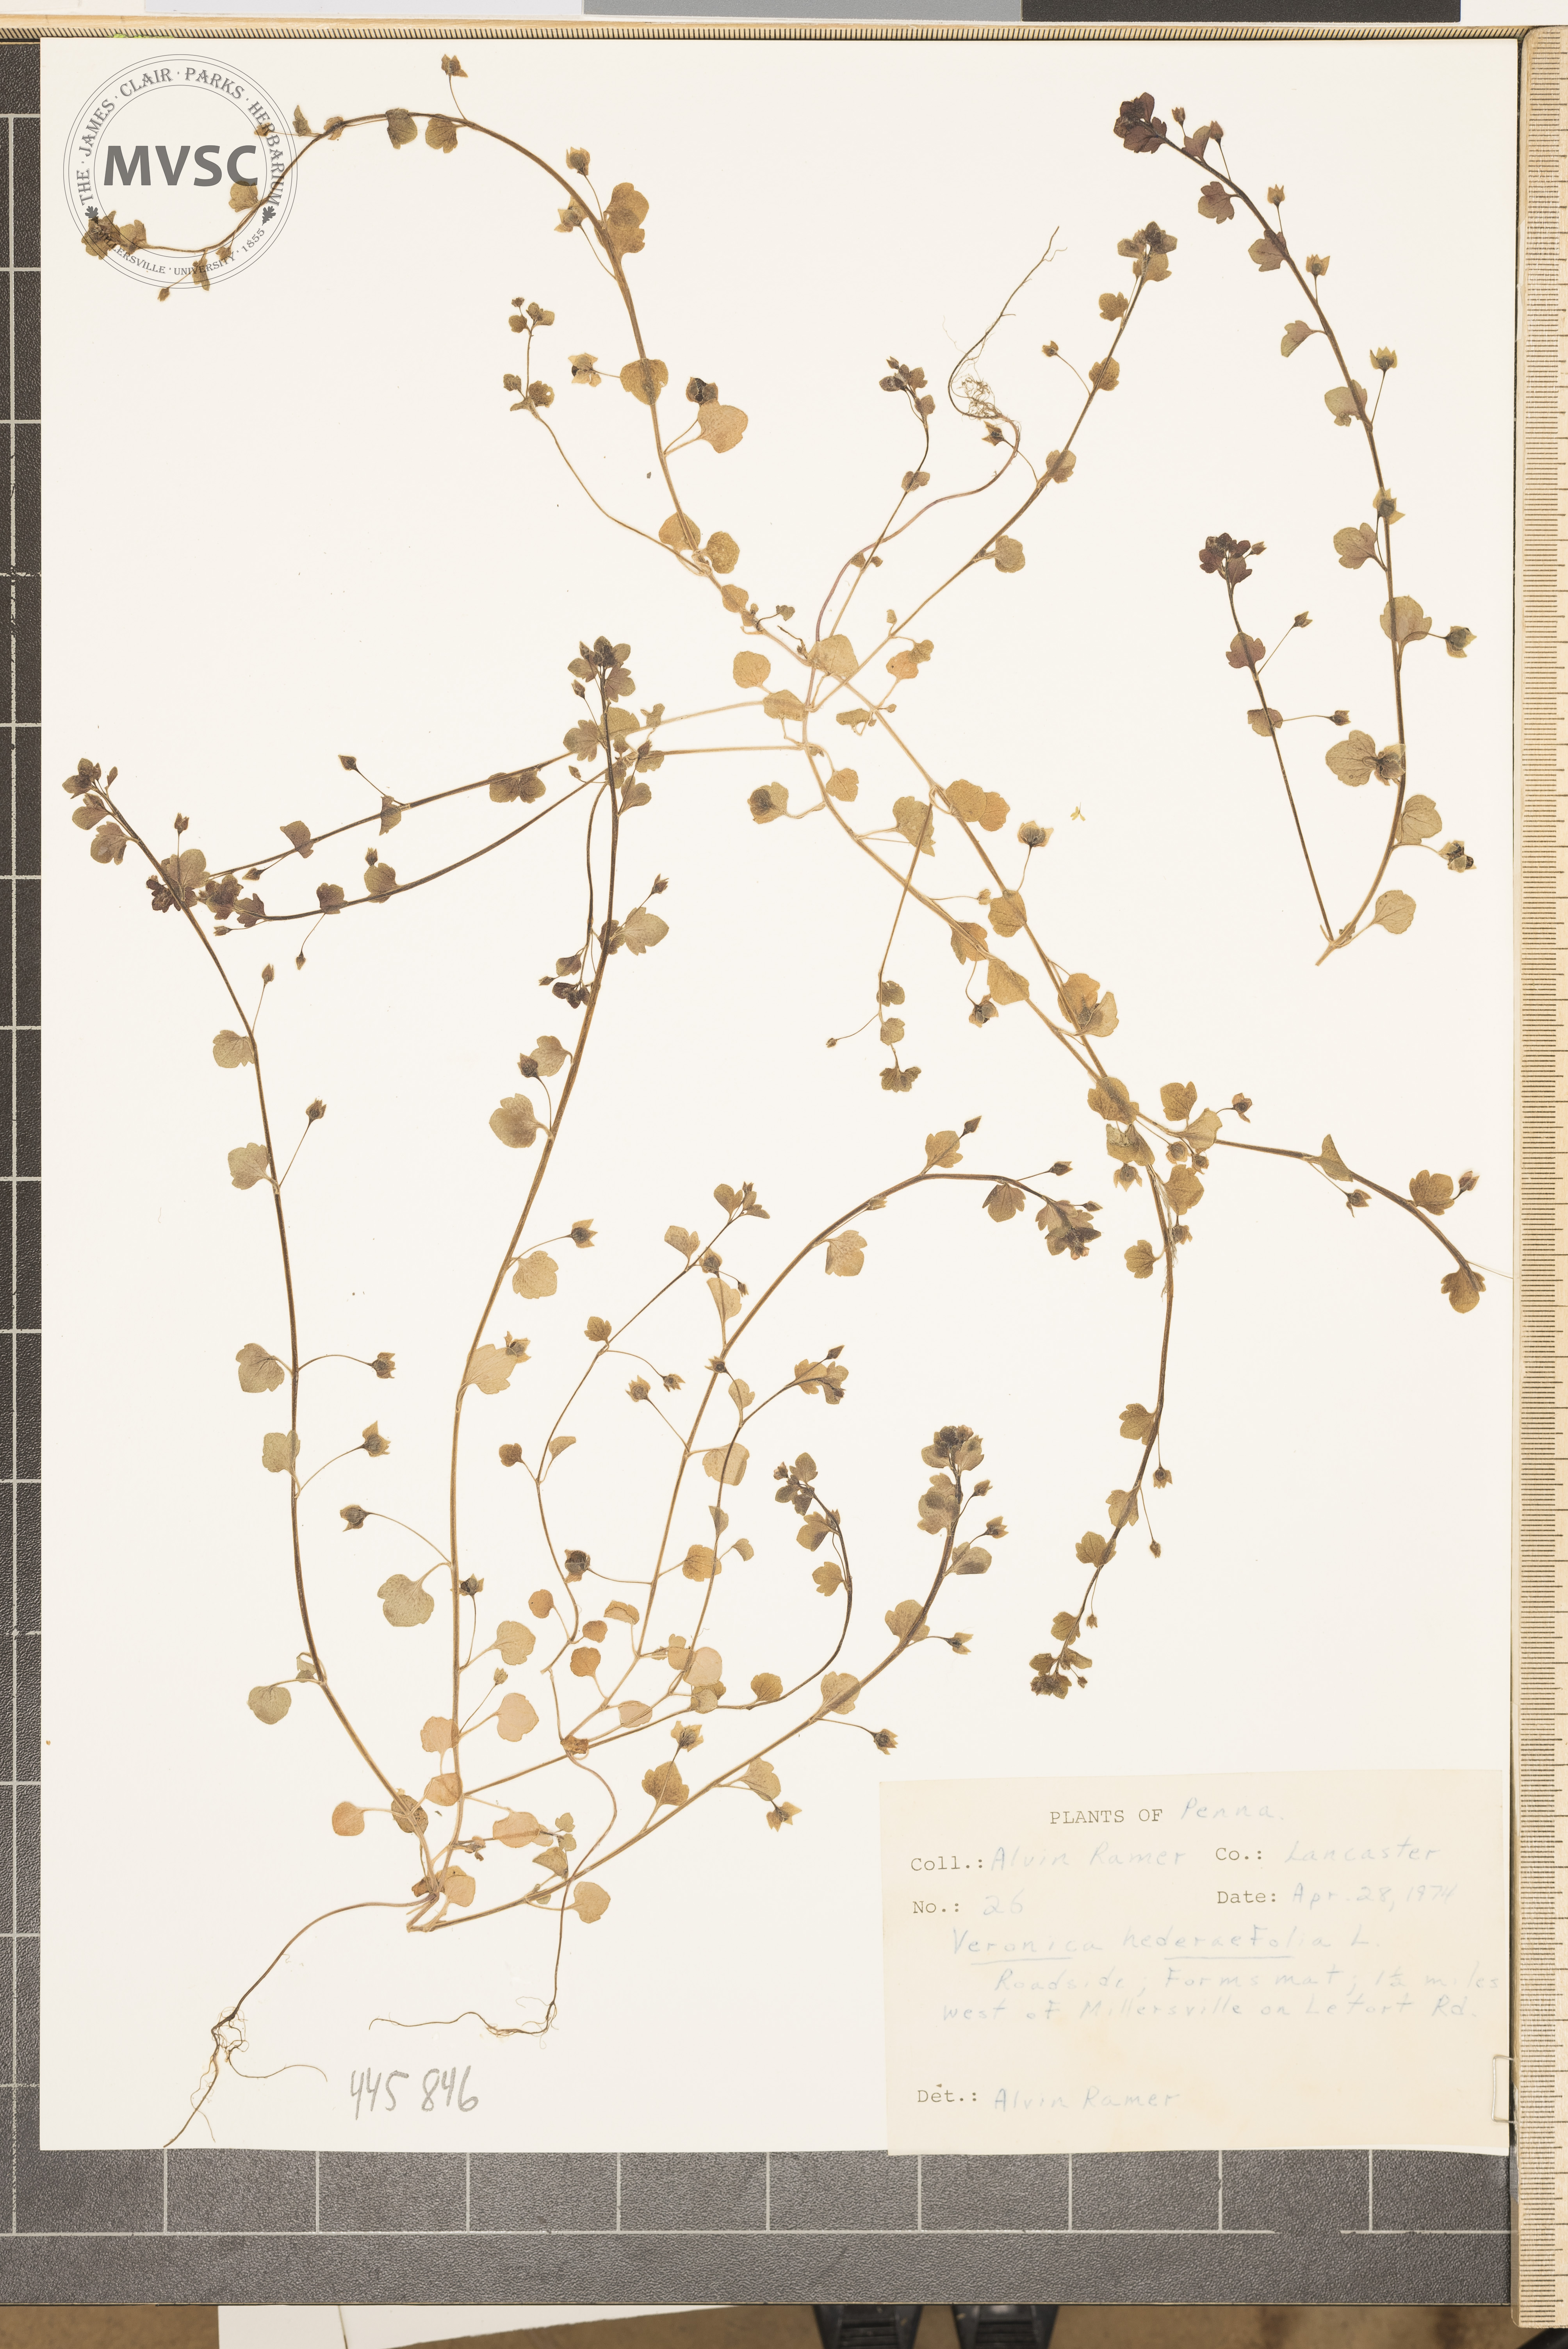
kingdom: Plantae
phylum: Tracheophyta
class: Magnoliopsida
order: Lamiales
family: Plantaginaceae
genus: Veronica
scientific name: Veronica hederifolia
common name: Ivy-leaved speedwell
